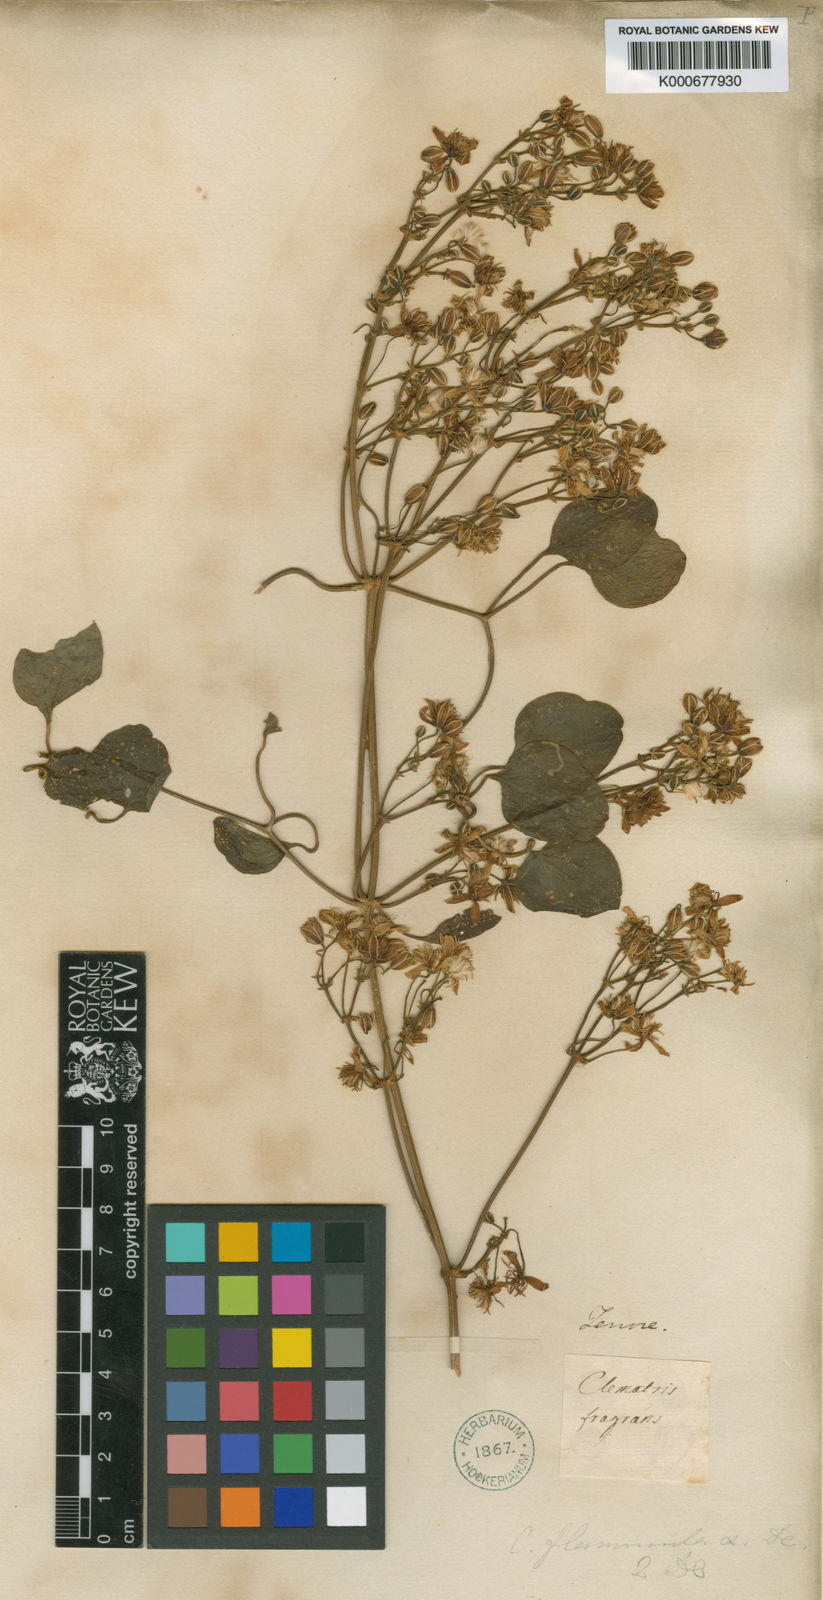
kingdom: Plantae
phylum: Tracheophyta
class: Magnoliopsida
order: Ranunculales
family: Ranunculaceae
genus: Clematis
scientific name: Clematis flammula
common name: Virgin's-bower
